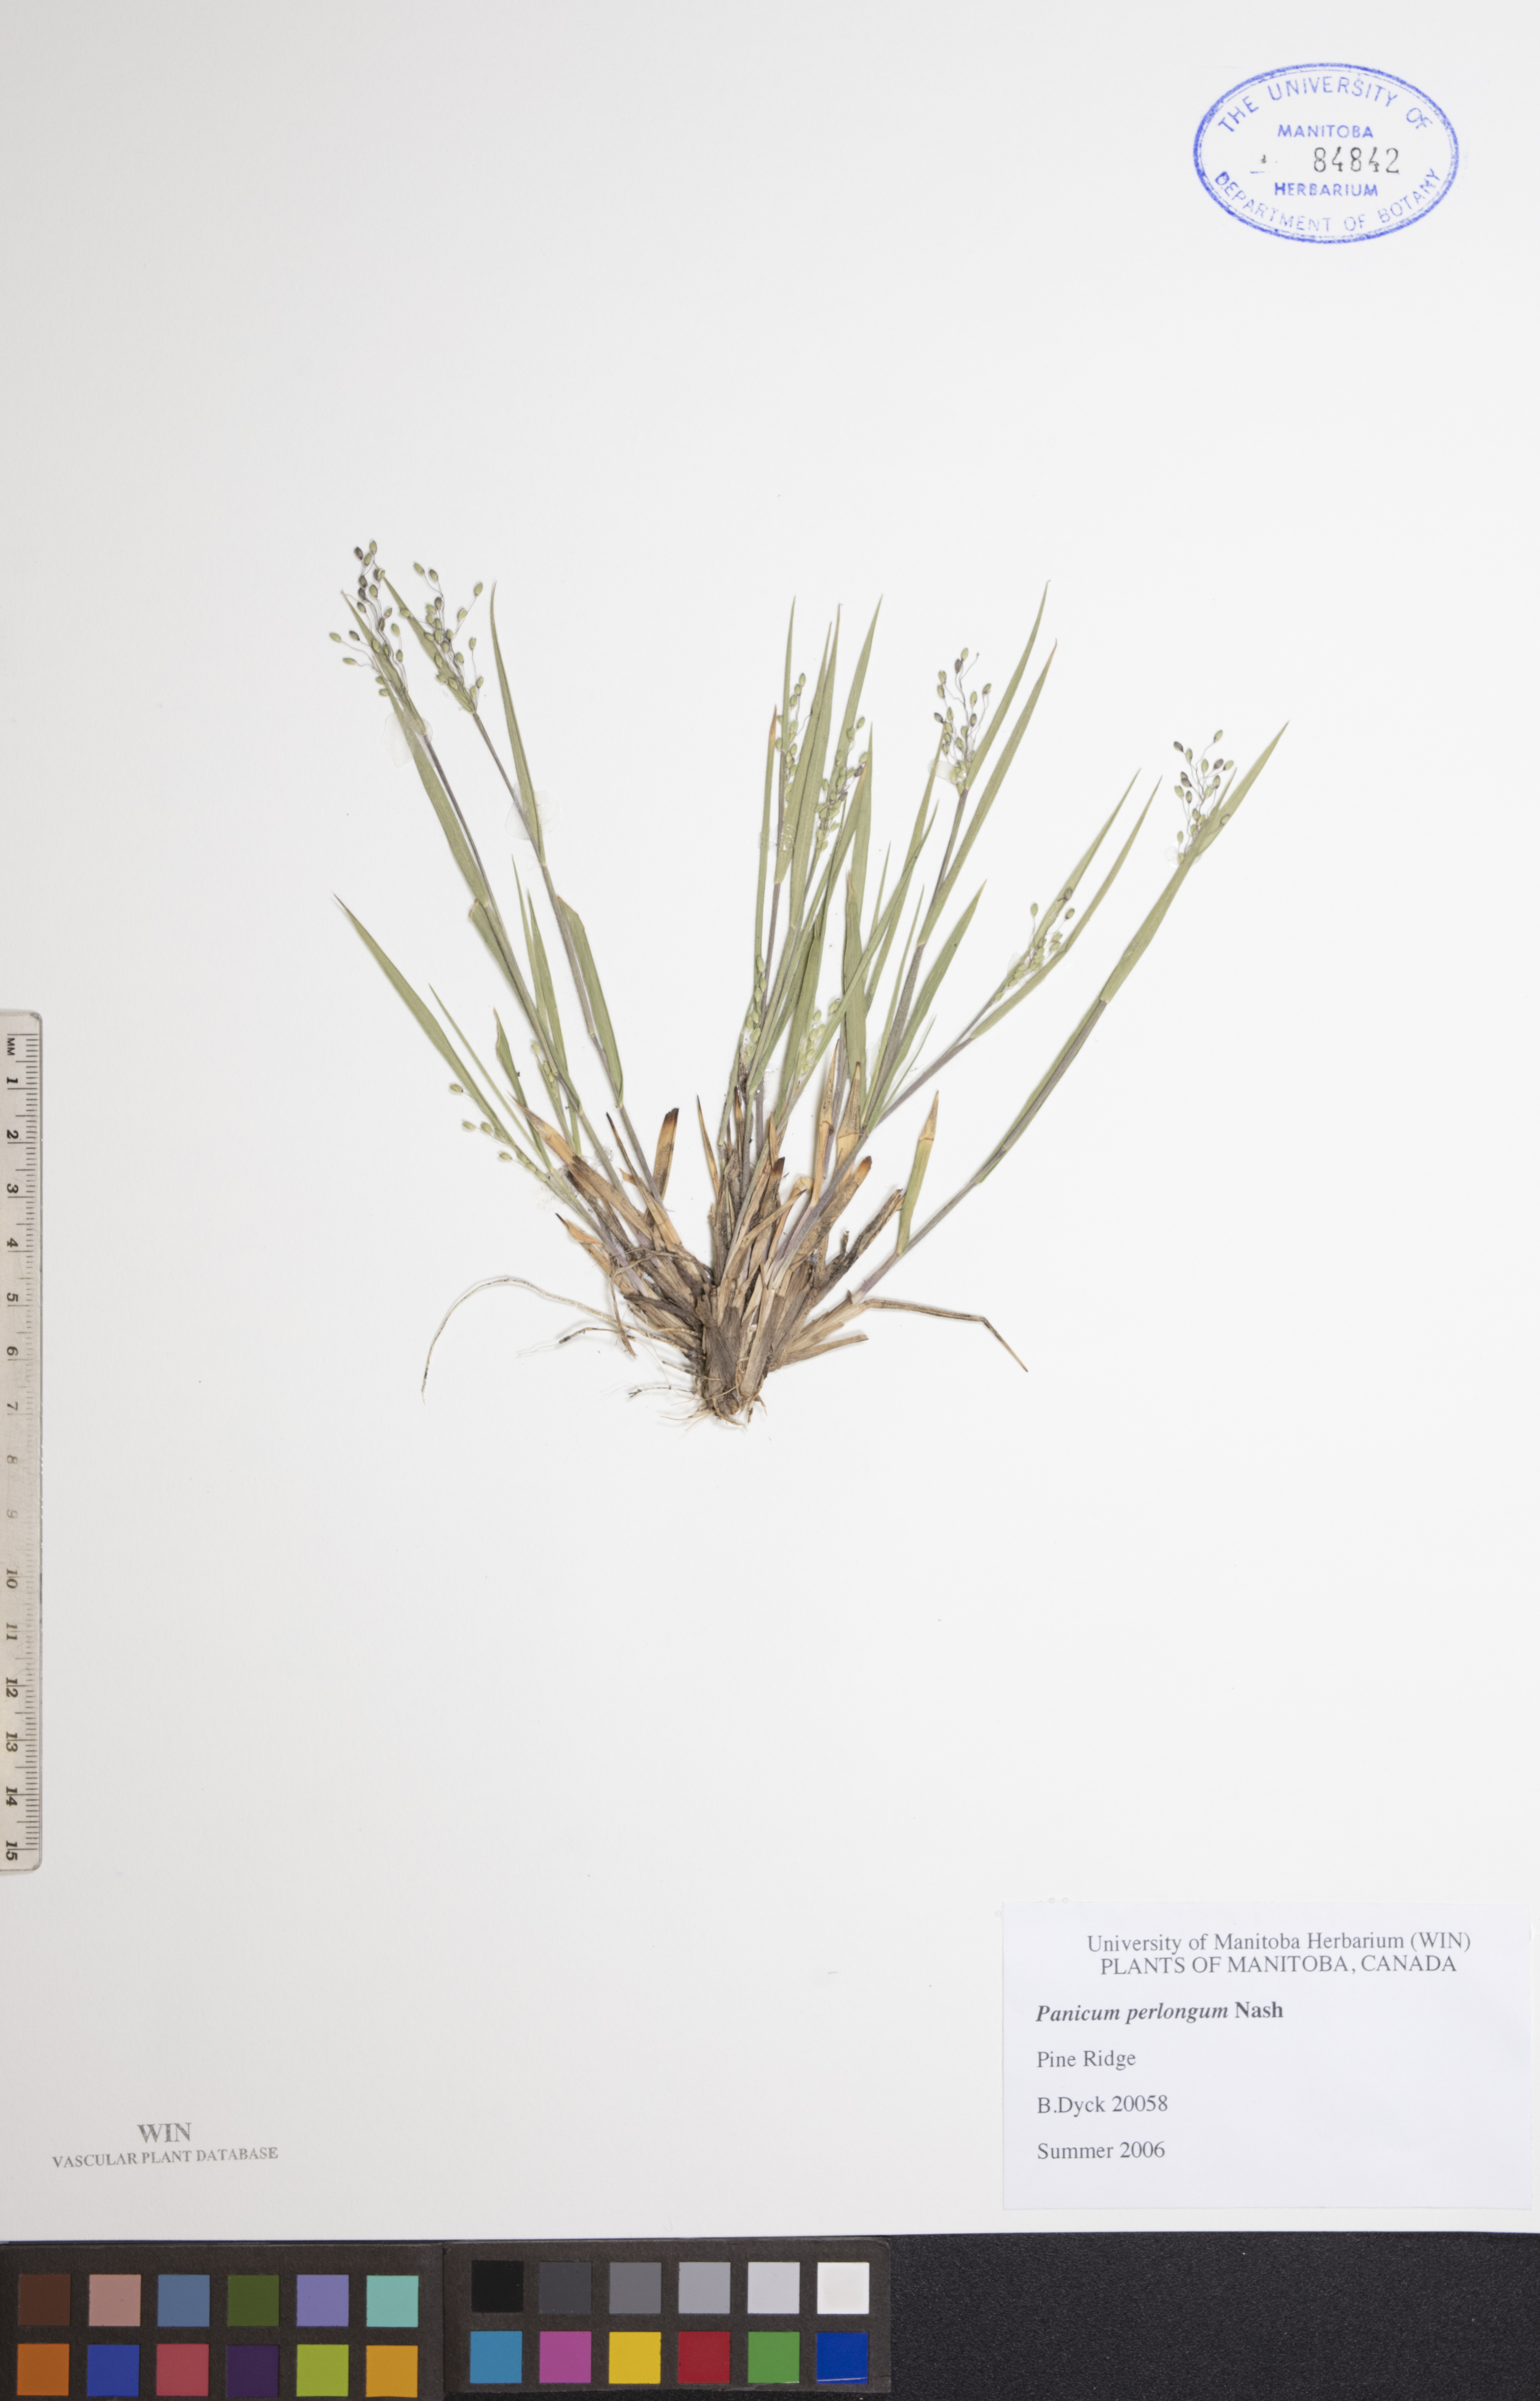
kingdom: Plantae
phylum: Tracheophyta
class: Liliopsida
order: Poales
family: Poaceae
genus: Dichanthelium
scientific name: Dichanthelium linearifolium
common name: Linear-leaved panicgrass
